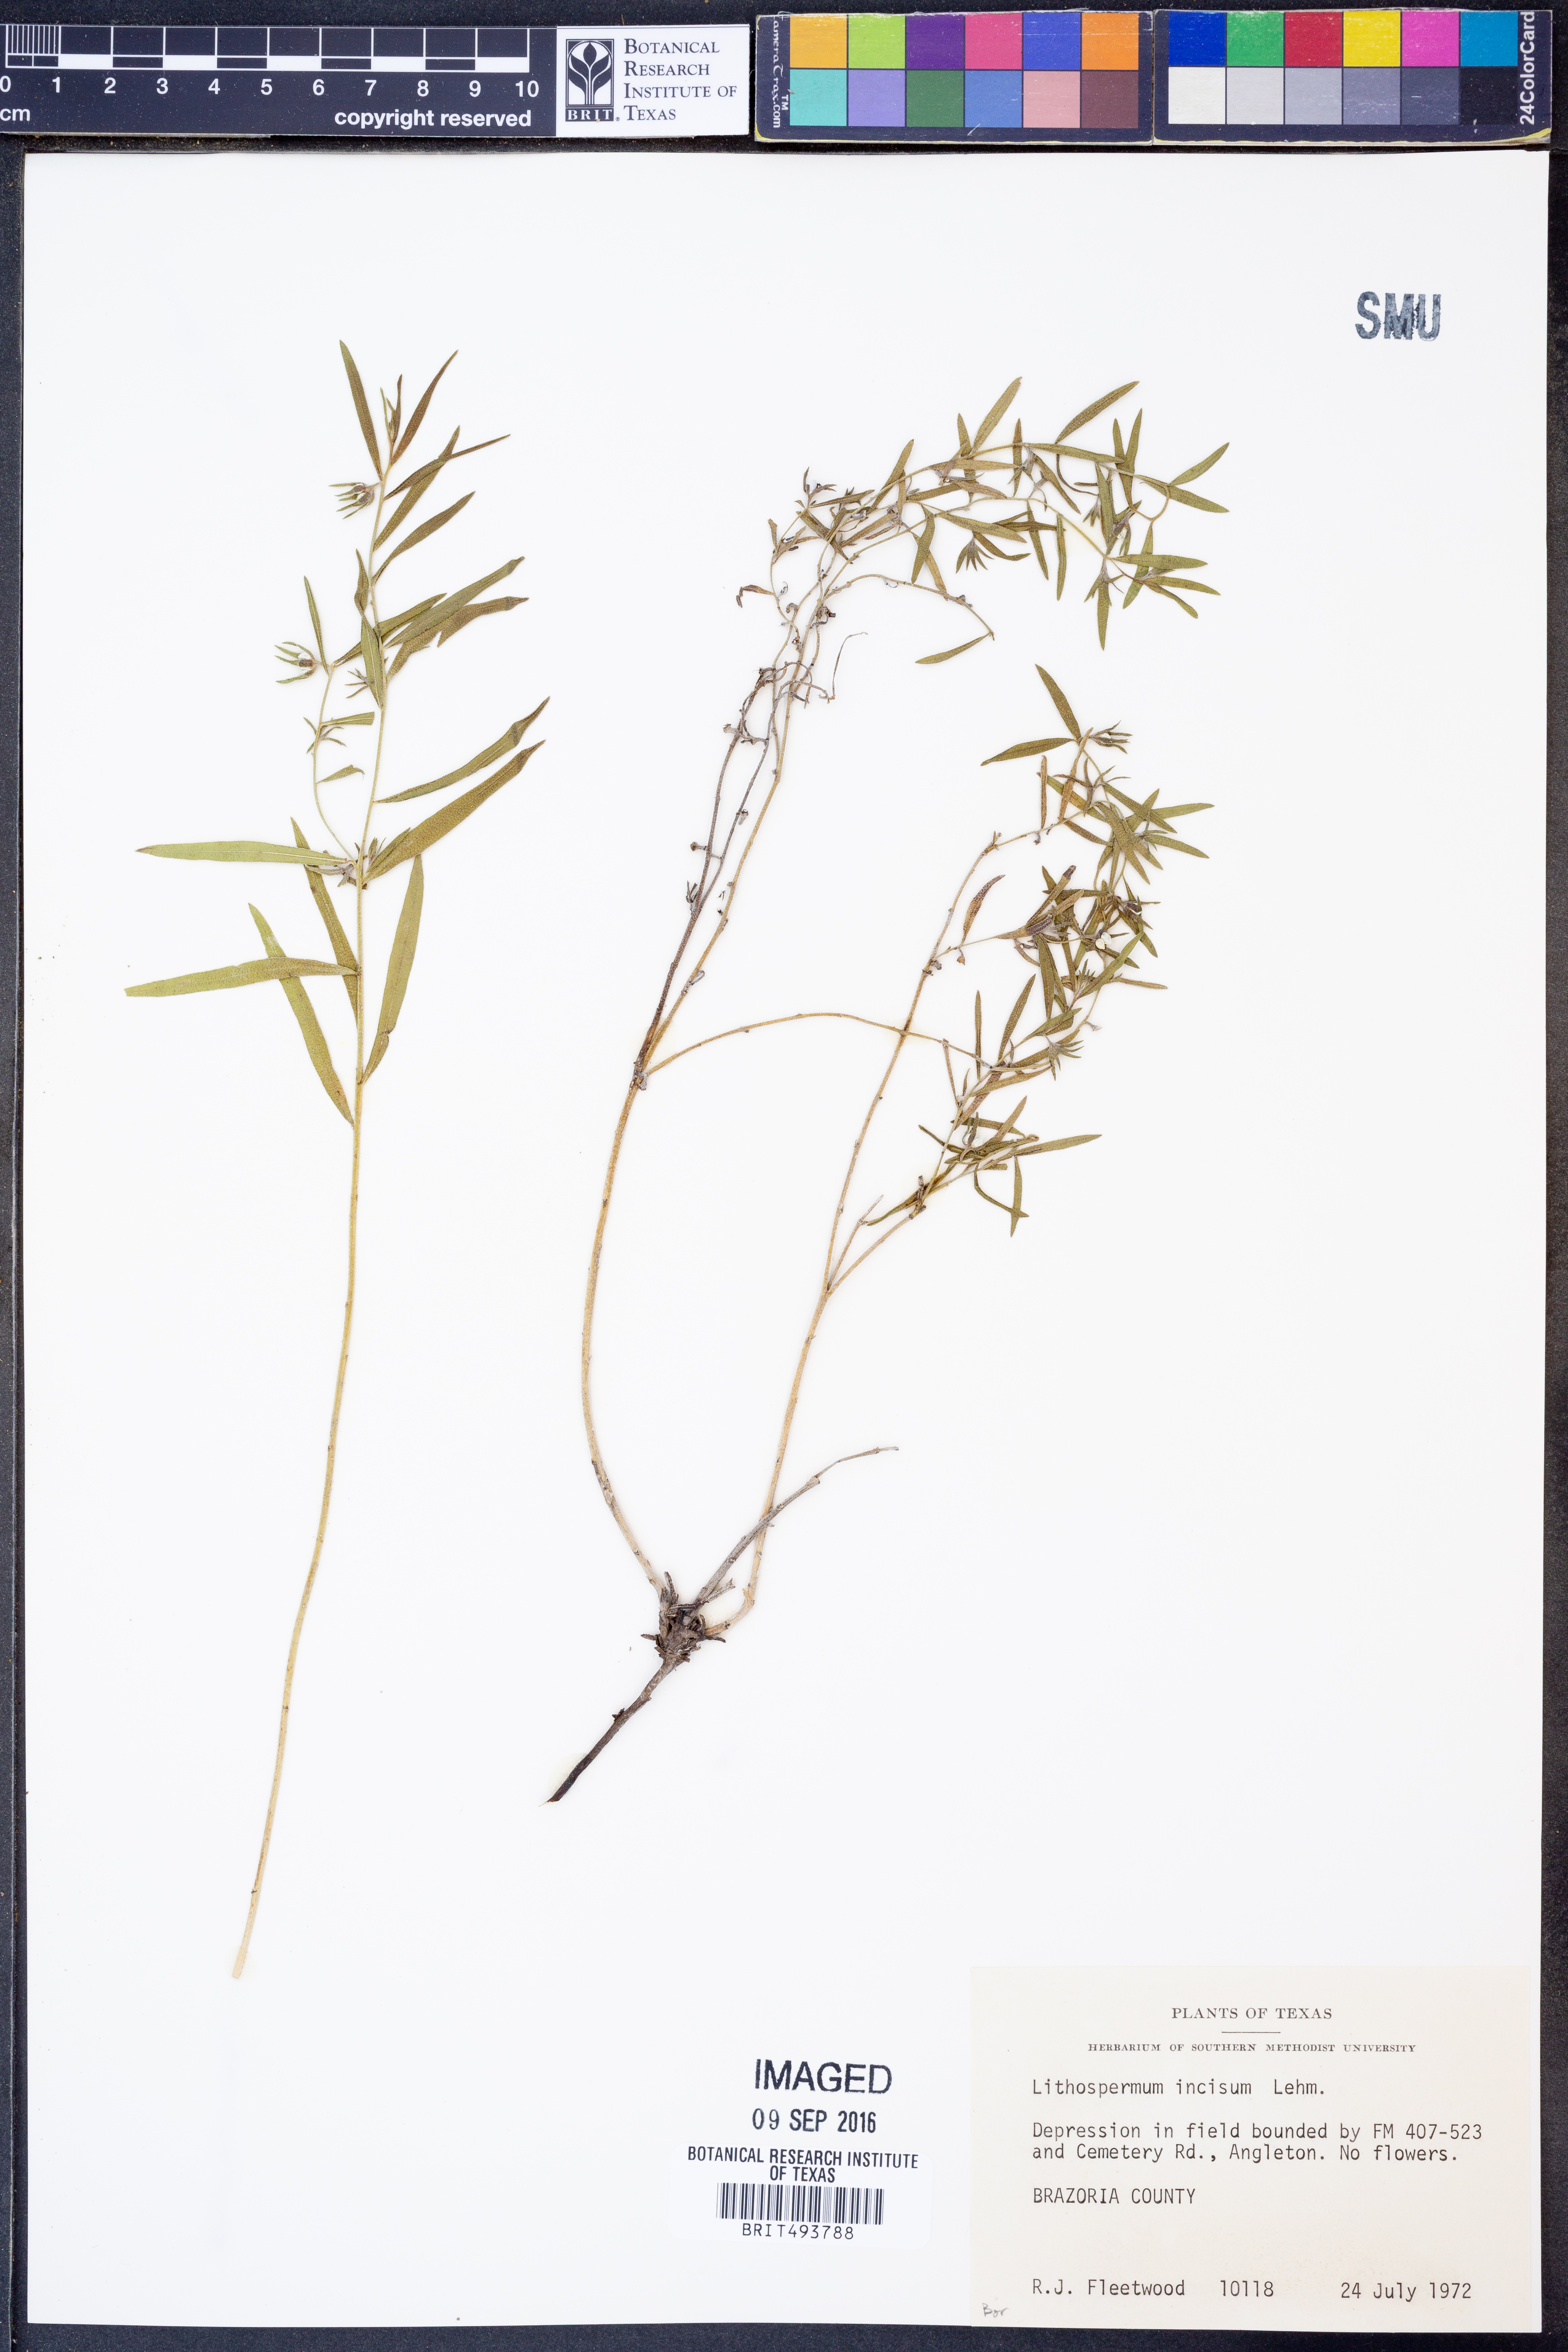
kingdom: Plantae
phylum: Tracheophyta
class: Magnoliopsida
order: Boraginales
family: Boraginaceae
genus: Lithospermum
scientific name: Lithospermum incisum
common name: Fringed gromwell
